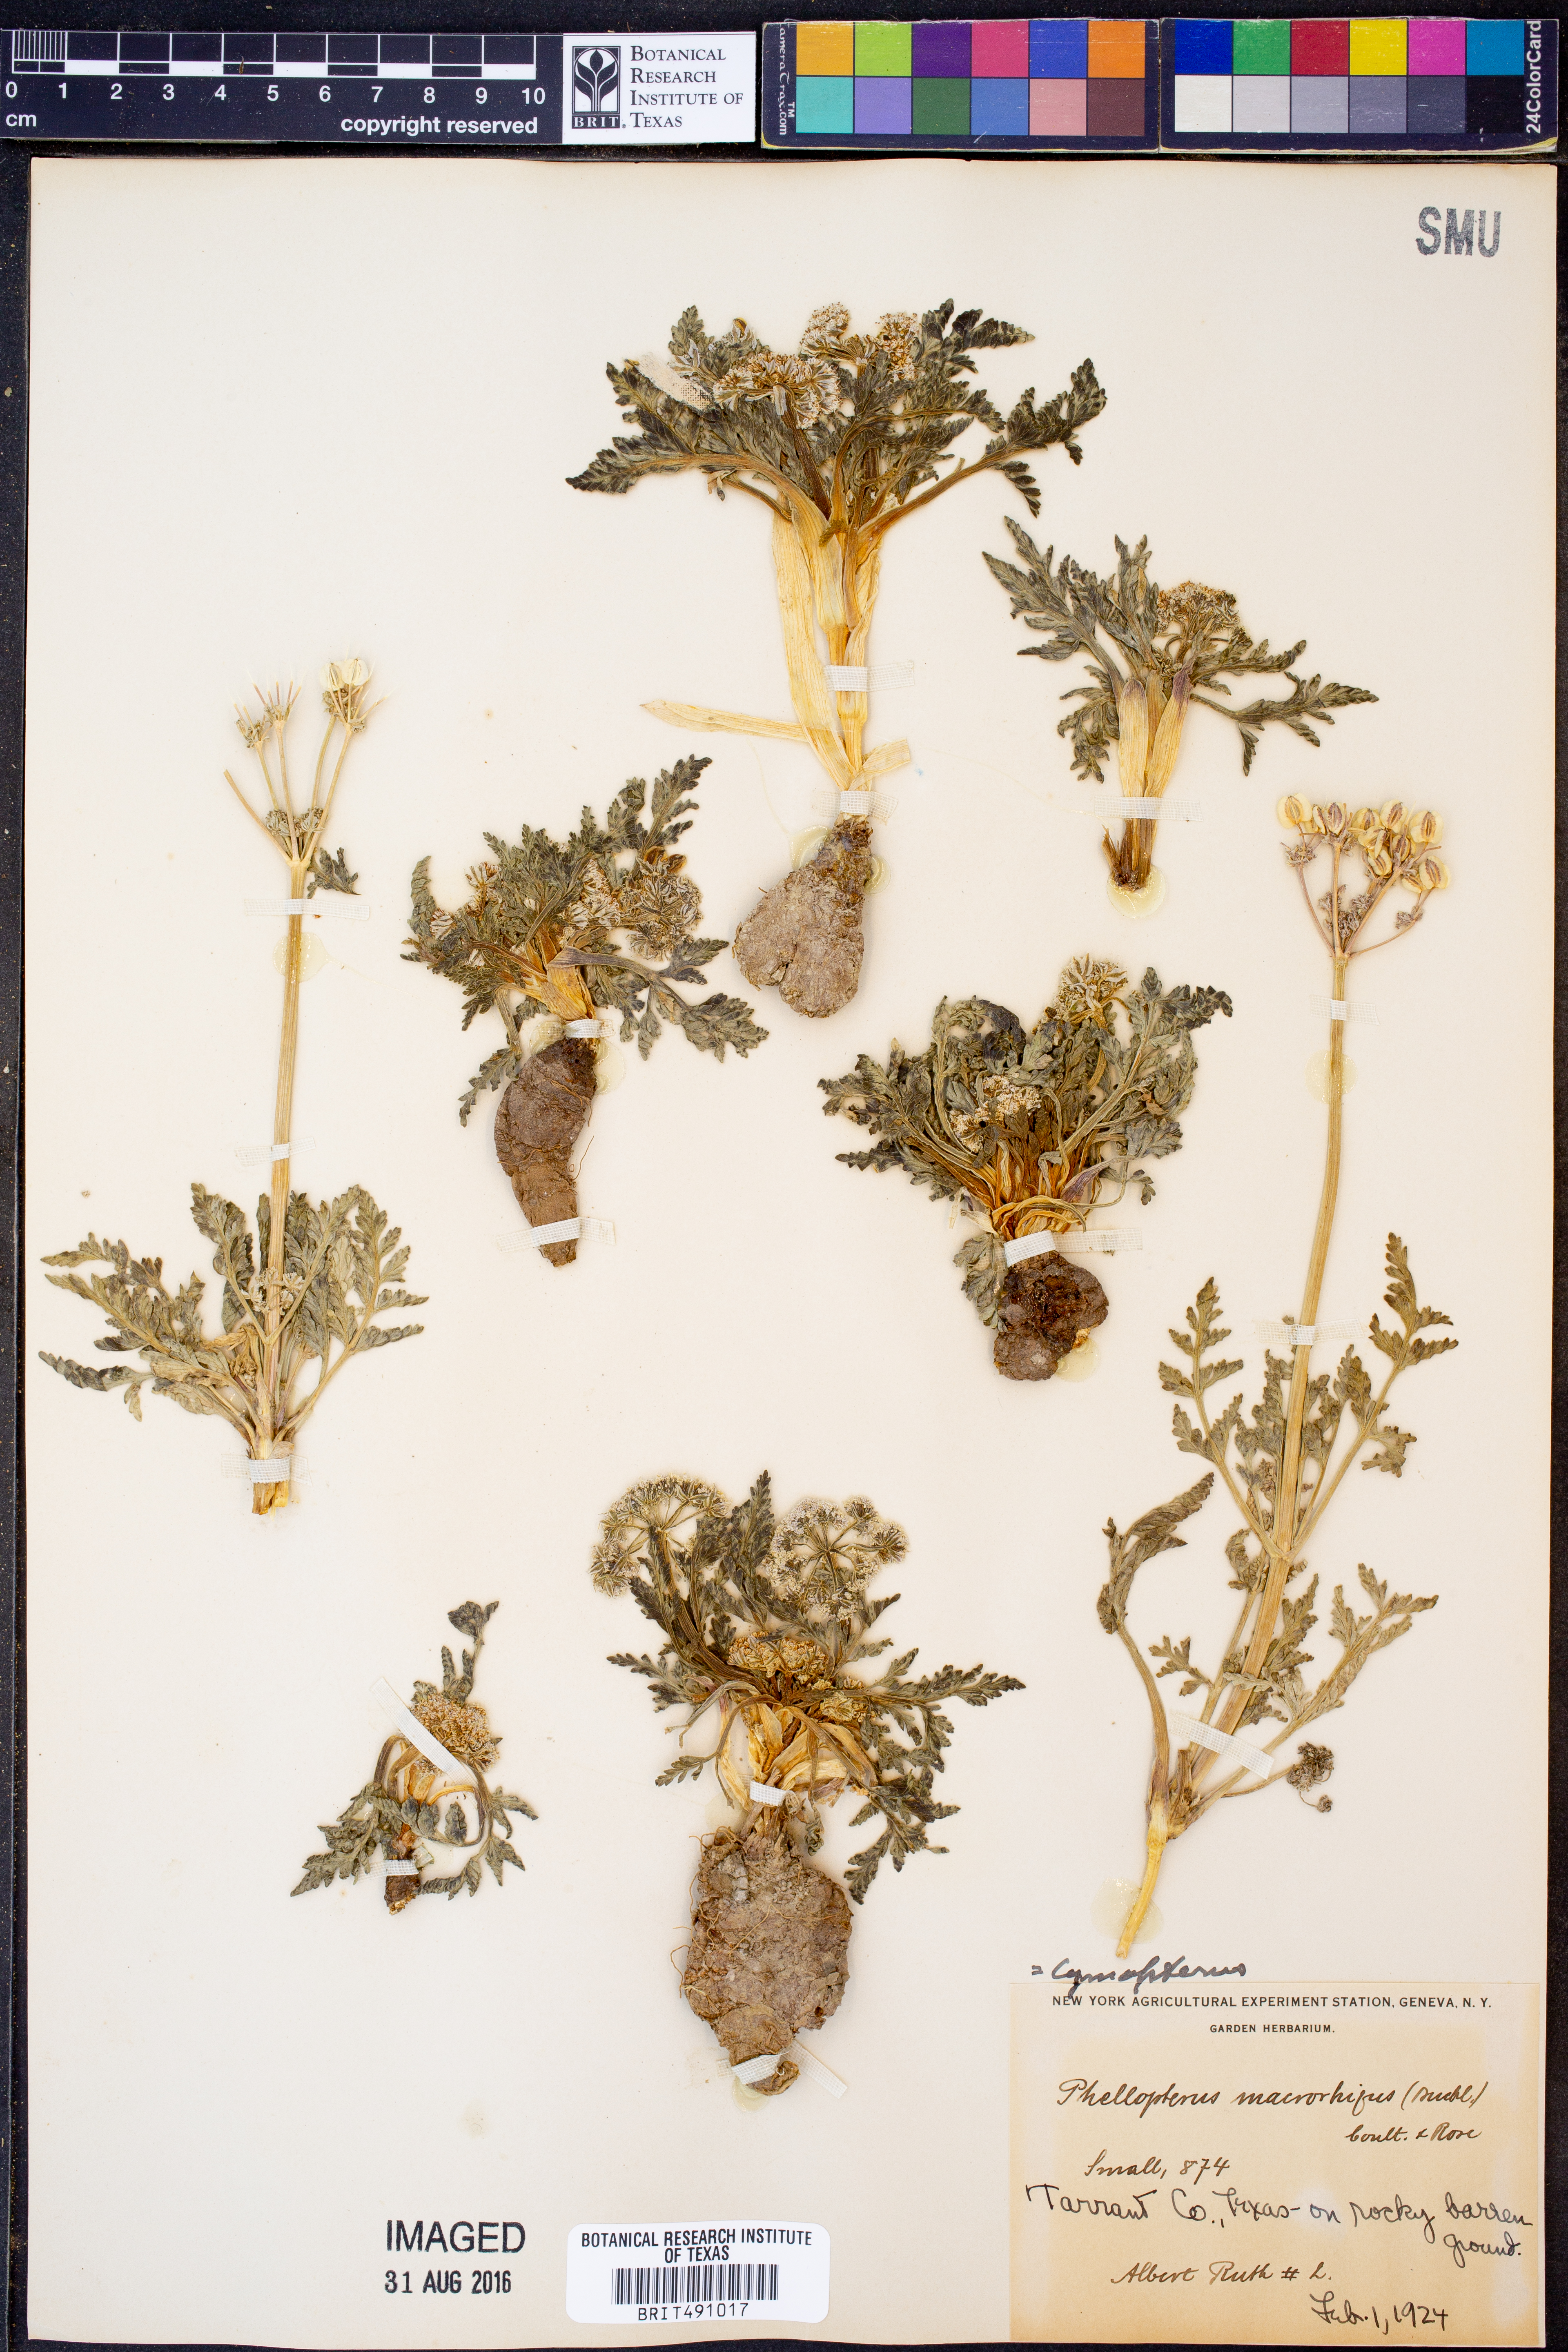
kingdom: Plantae
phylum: Tracheophyta
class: Magnoliopsida
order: Apiales
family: Apiaceae
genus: Vesper
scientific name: Vesper macrorhizus
